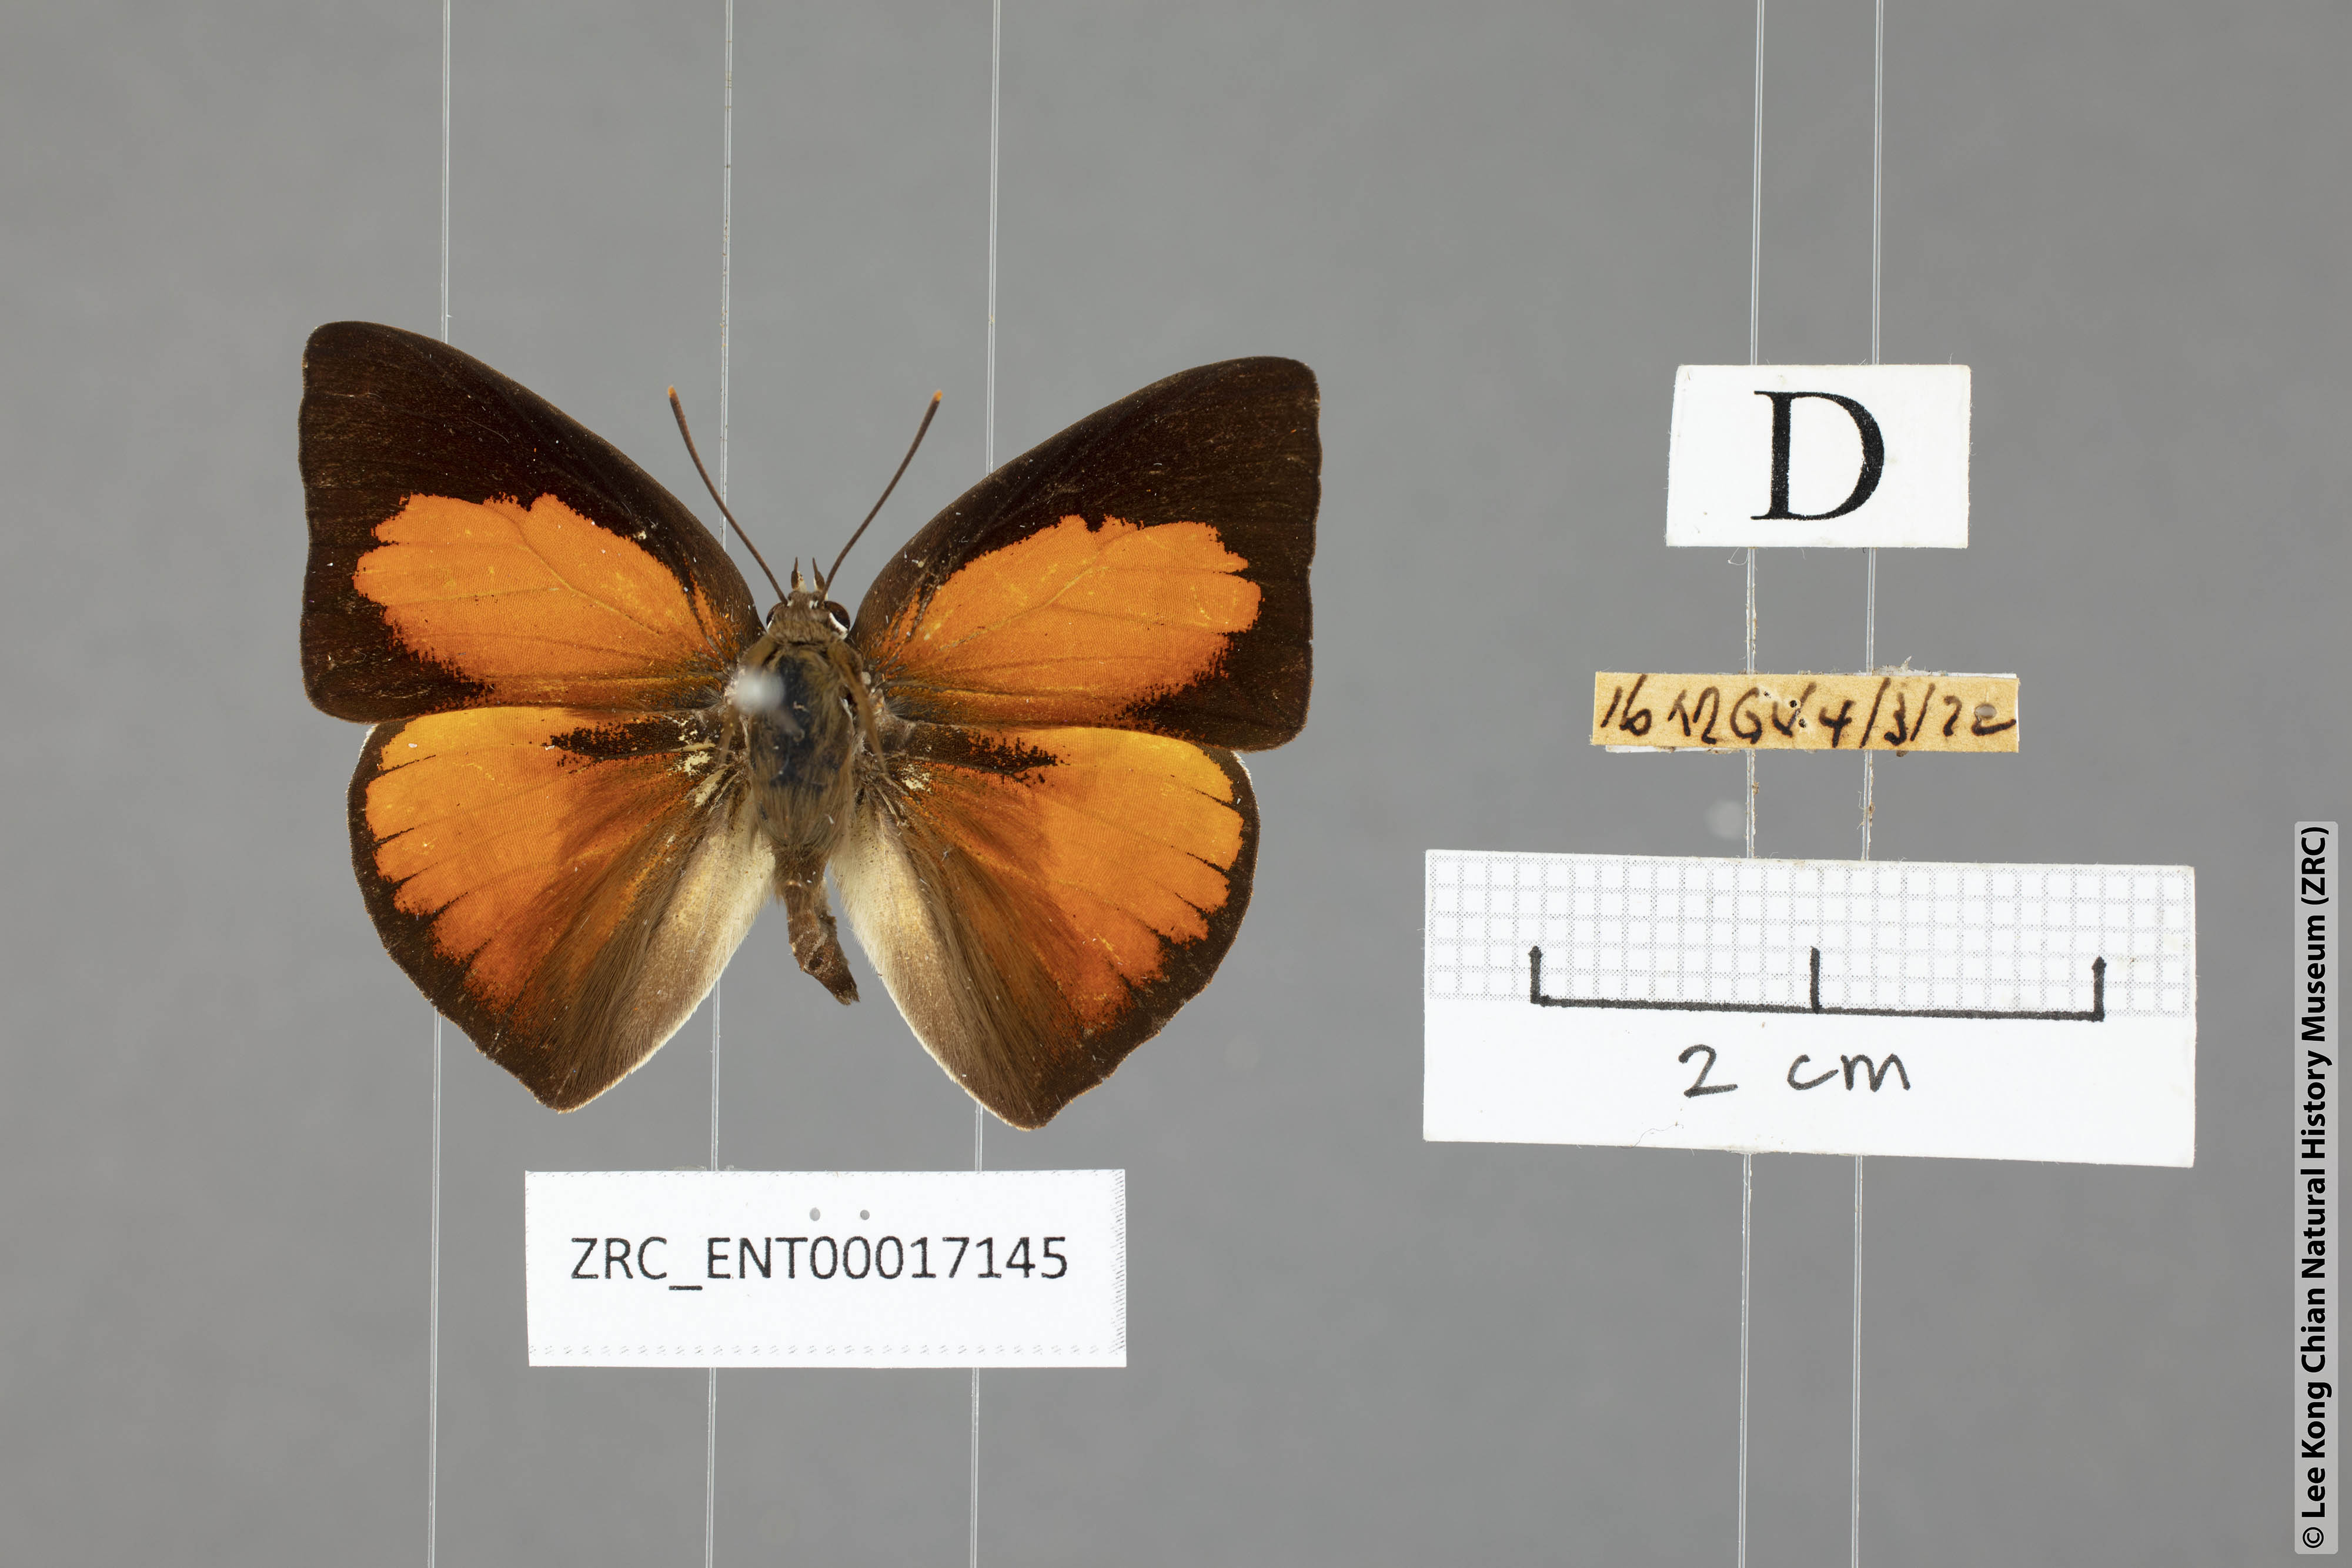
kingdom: Animalia
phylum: Arthropoda
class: Insecta
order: Lepidoptera
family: Lycaenidae
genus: Curetis
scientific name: Curetis santana
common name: Malayan sunbeam
